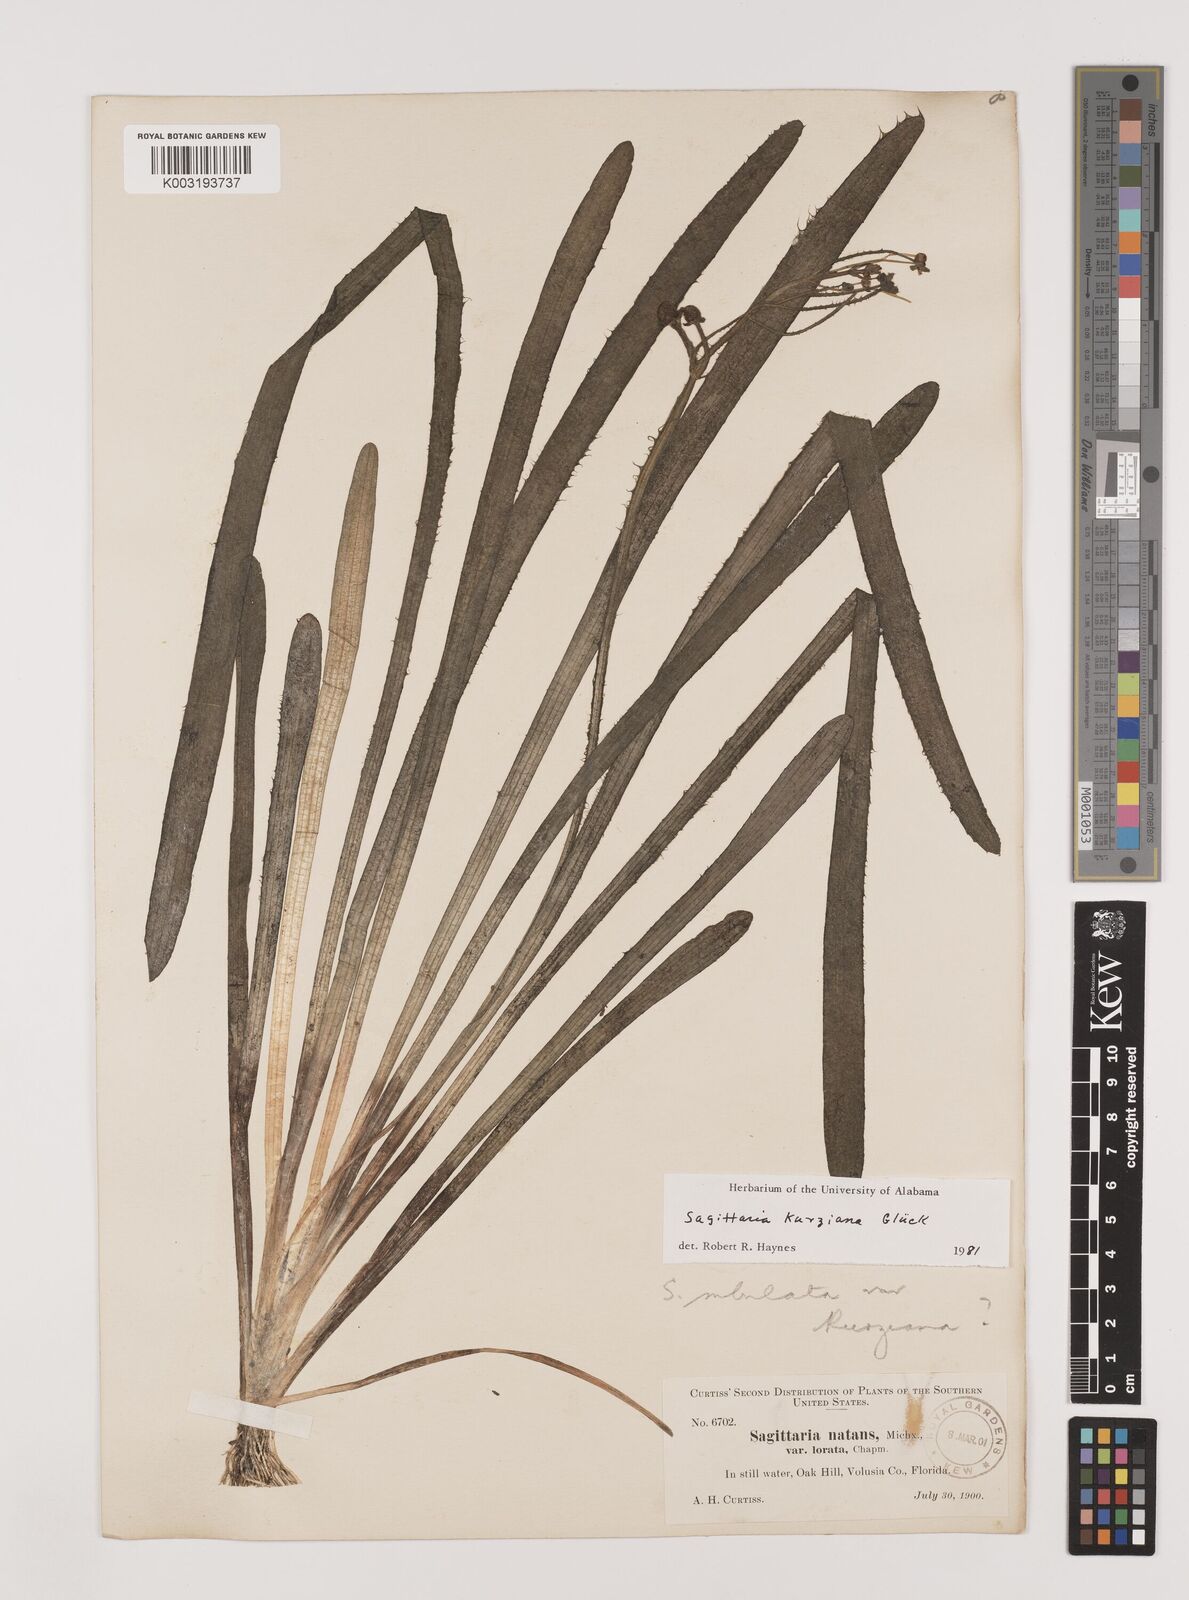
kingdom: Plantae
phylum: Tracheophyta
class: Liliopsida
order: Alismatales
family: Alismataceae
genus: Sagittaria
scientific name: Sagittaria kurziana
